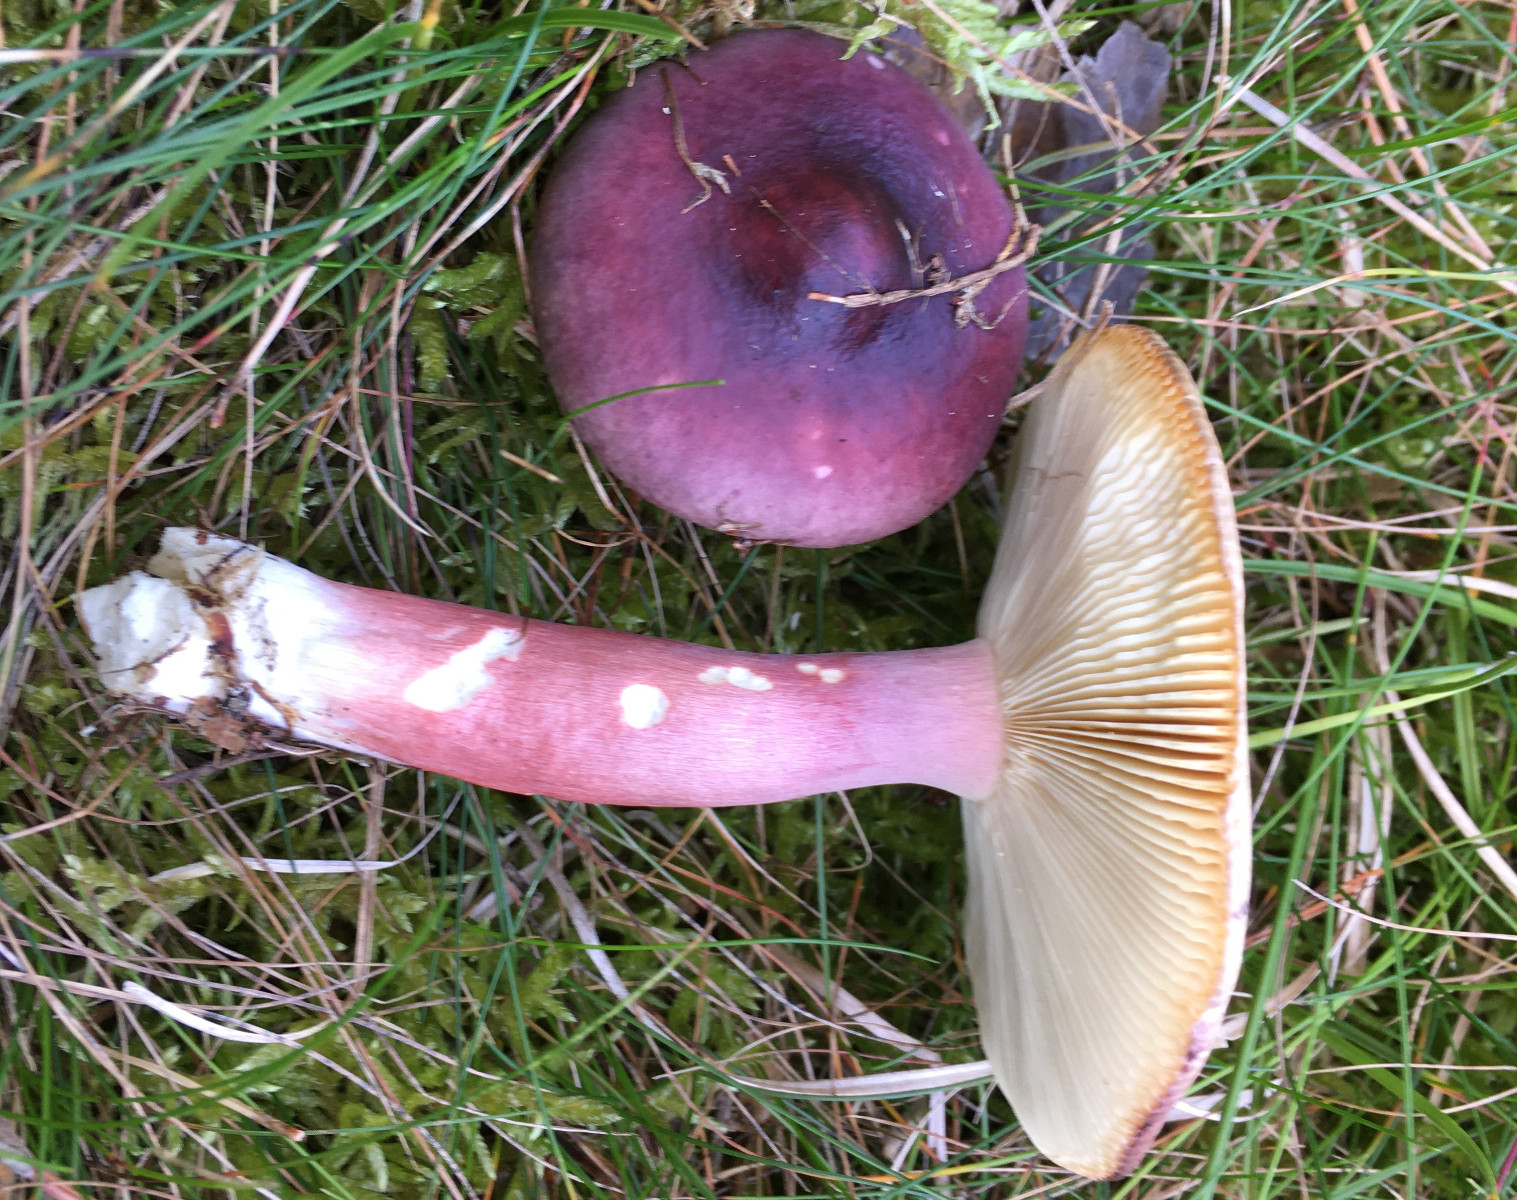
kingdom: Fungi
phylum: Basidiomycota
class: Agaricomycetes
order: Russulales
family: Russulaceae
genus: Russula
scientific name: Russula sardonia
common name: citronbladet skørhat
